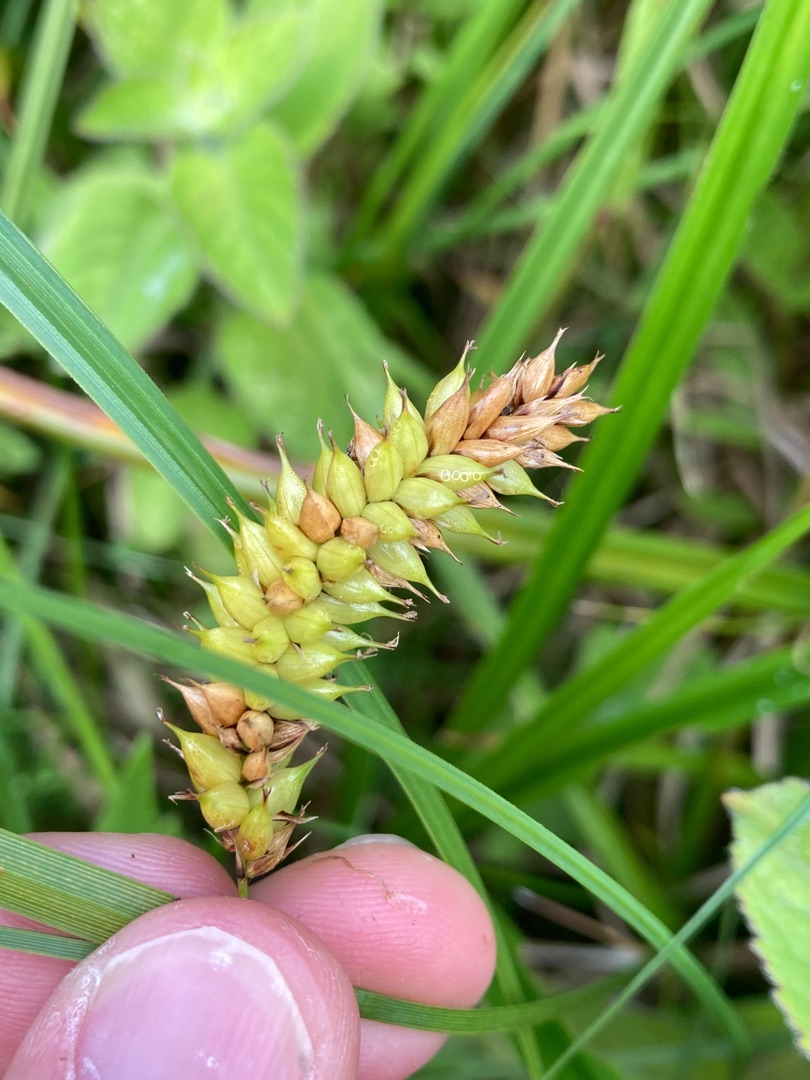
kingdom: Plantae
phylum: Tracheophyta
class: Liliopsida
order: Poales
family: Cyperaceae
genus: Carex
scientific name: Carex vesicaria
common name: Blære-star
